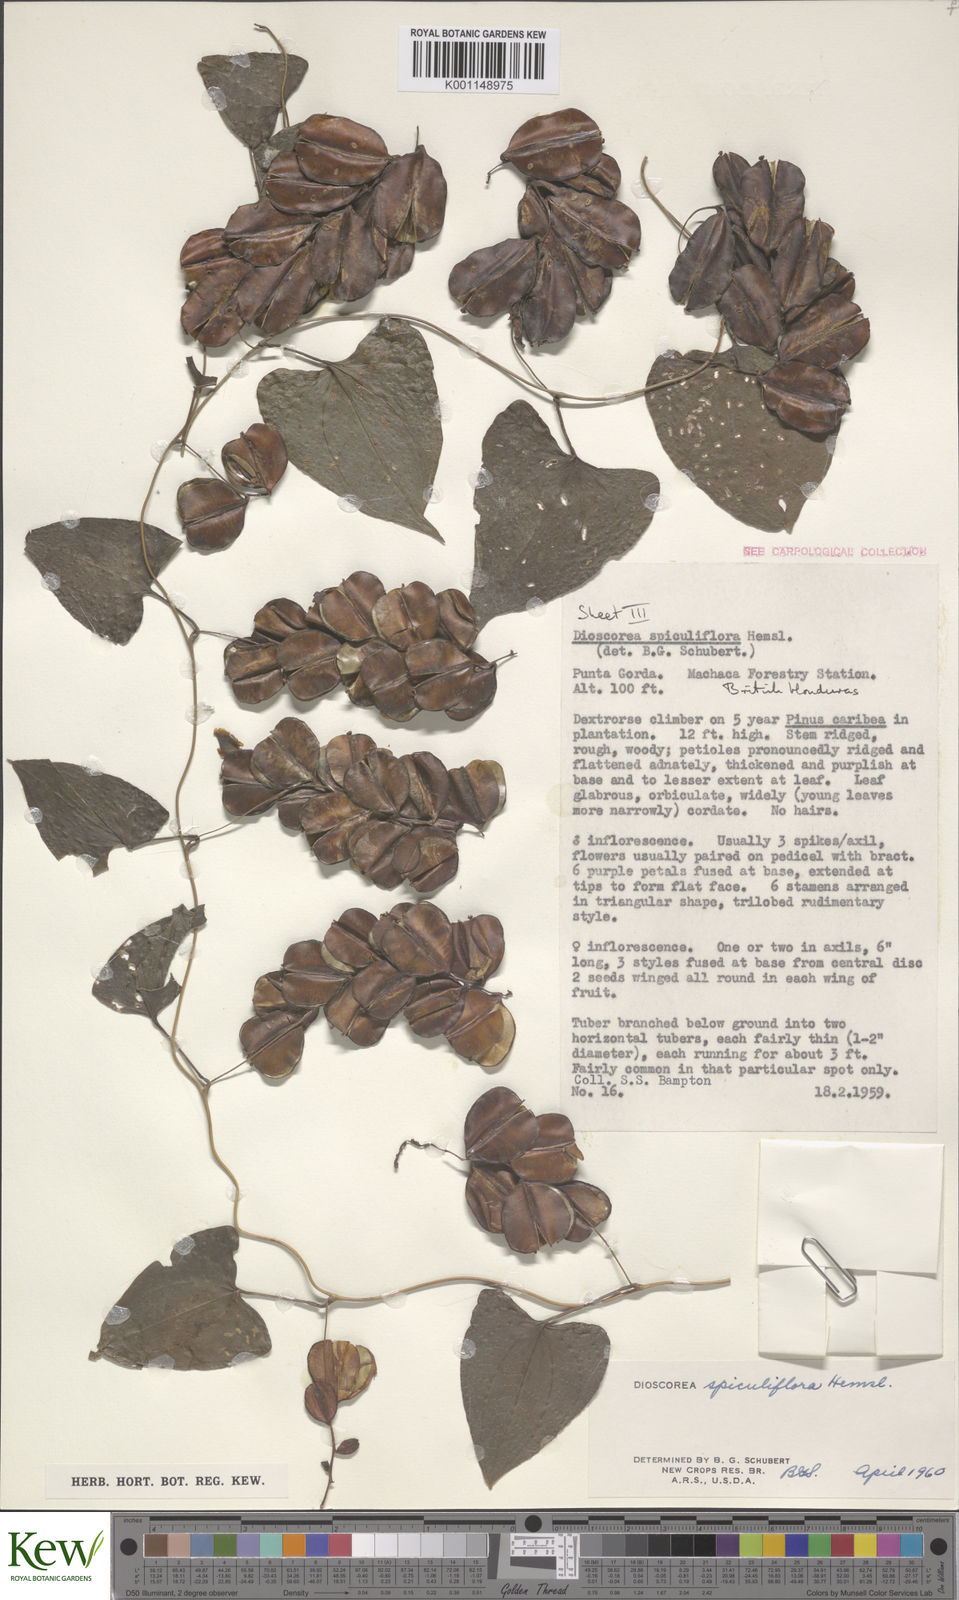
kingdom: Plantae
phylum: Tracheophyta
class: Liliopsida
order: Dioscoreales
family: Dioscoreaceae
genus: Dioscorea
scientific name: Dioscorea spiculiflora
